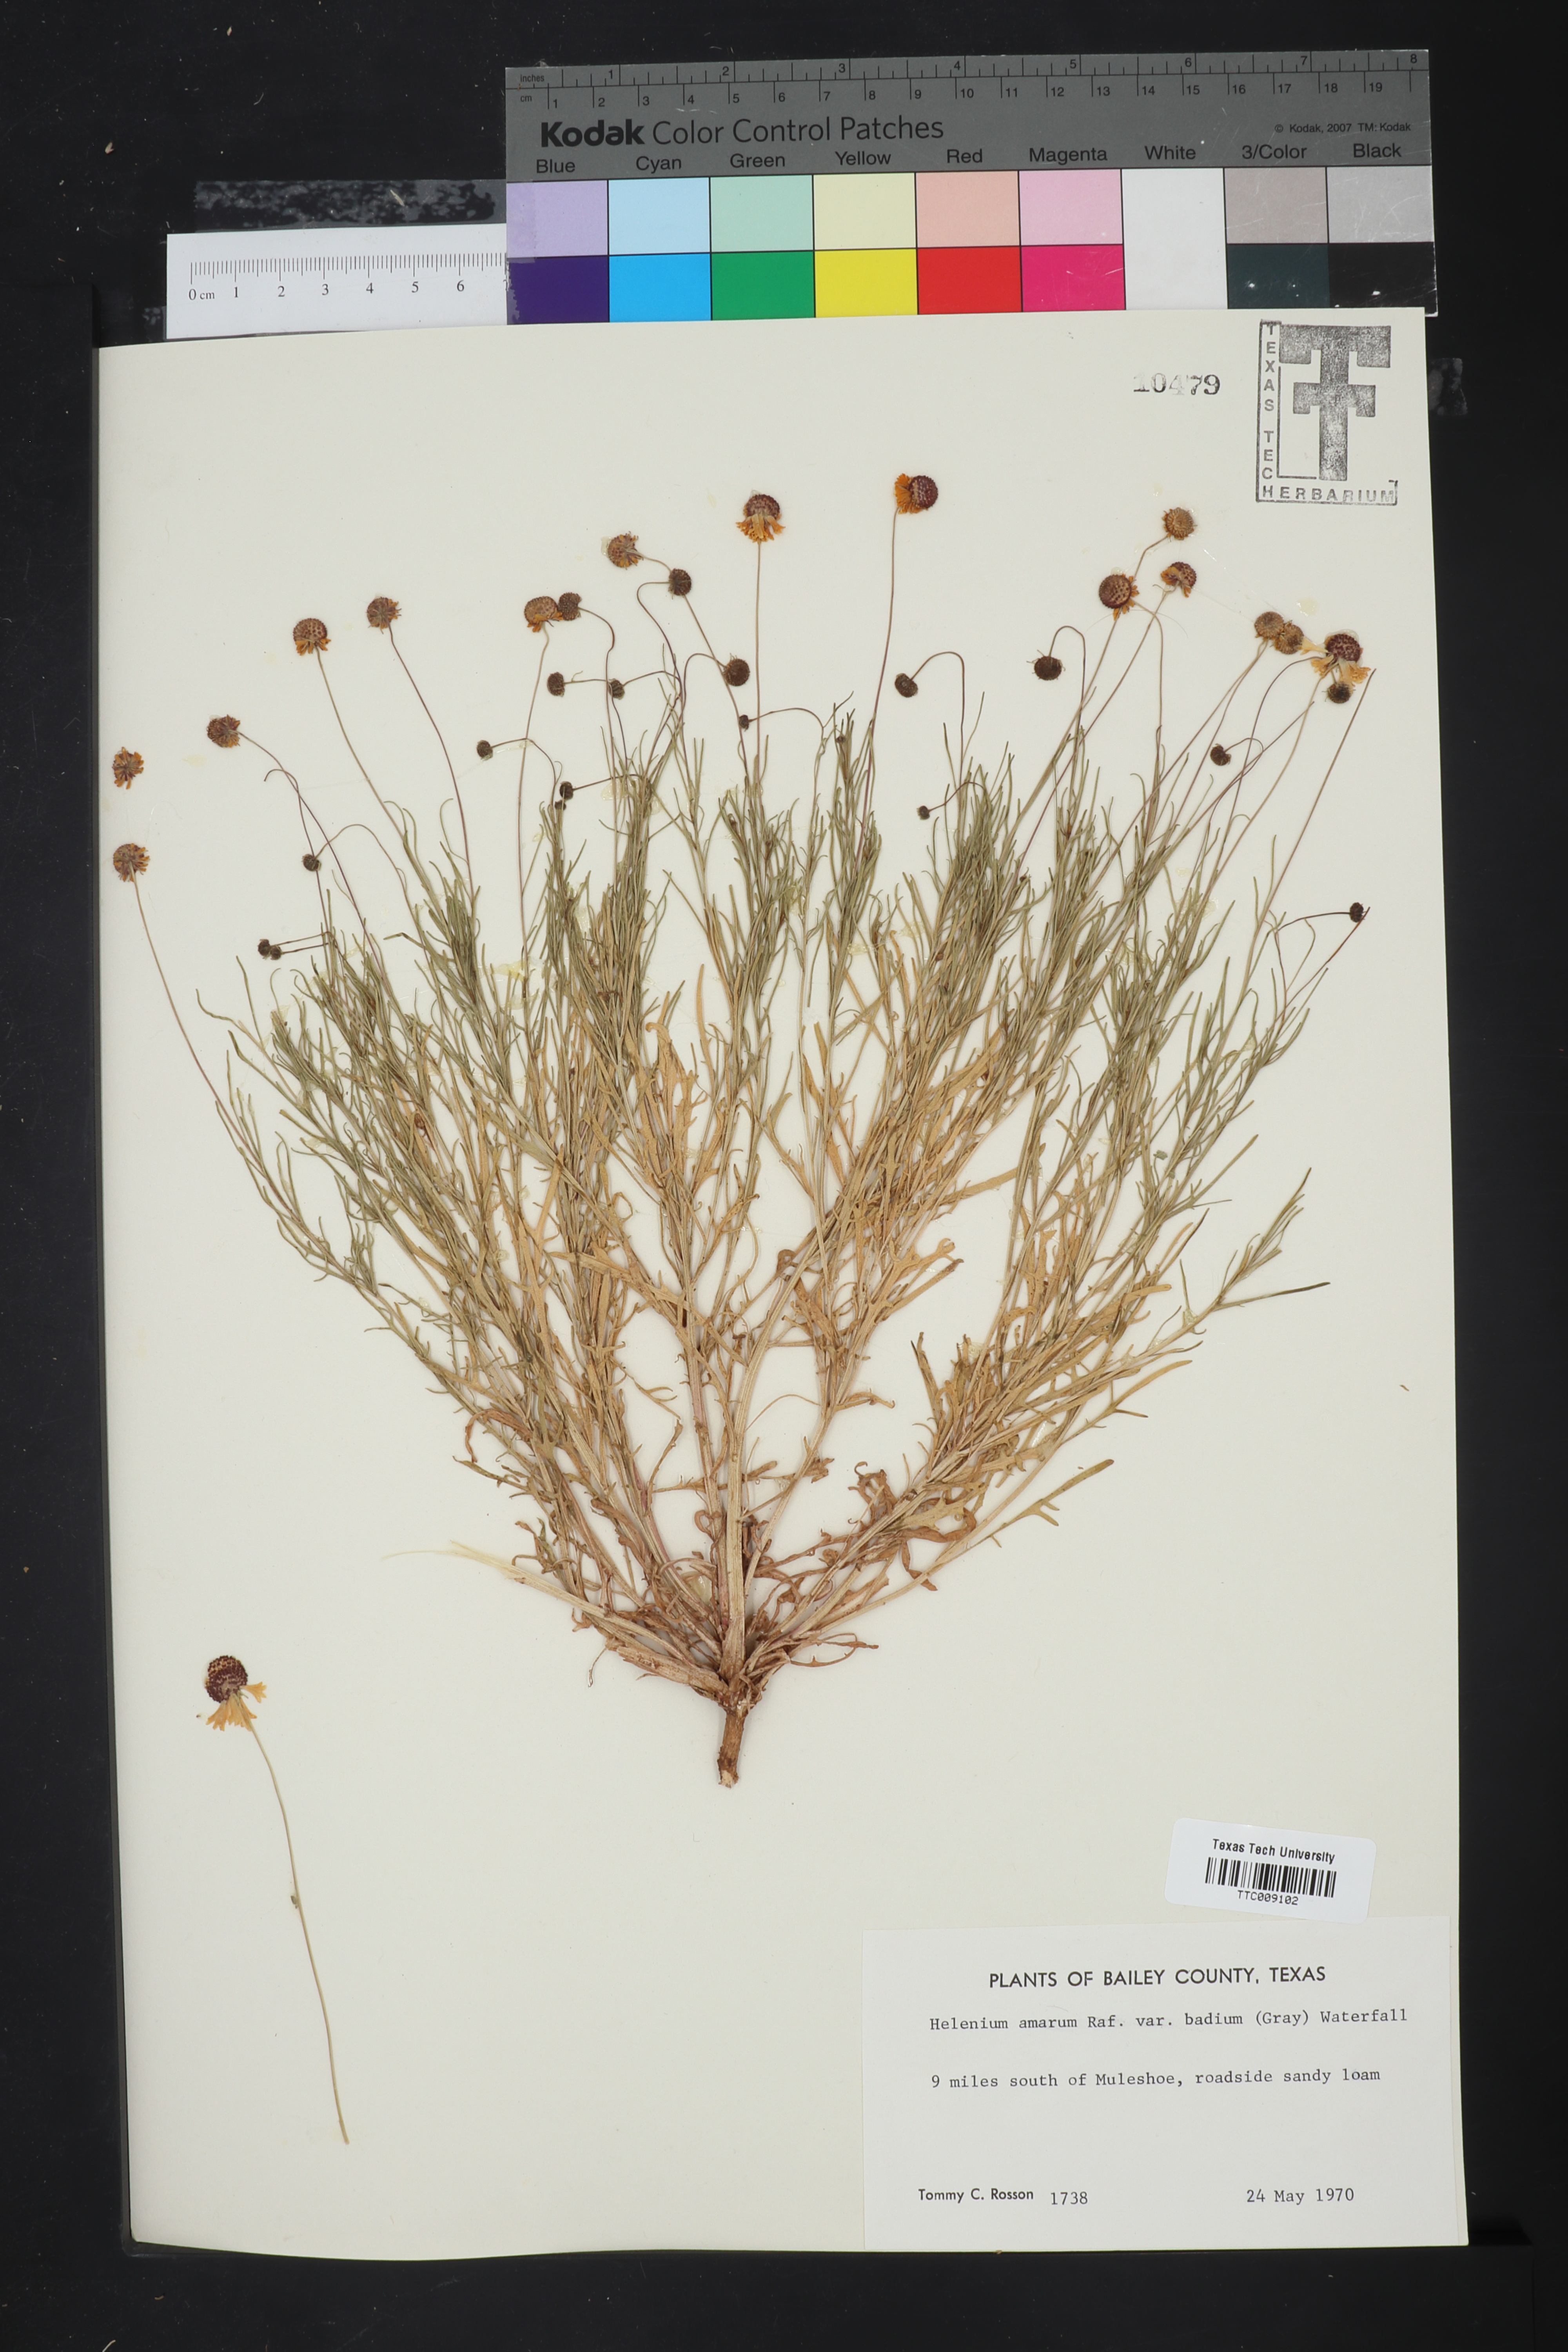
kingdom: Plantae
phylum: Tracheophyta
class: Magnoliopsida
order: Asterales
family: Asteraceae
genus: Helenium
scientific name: Helenium amarum
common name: Bitter sneezeweed
